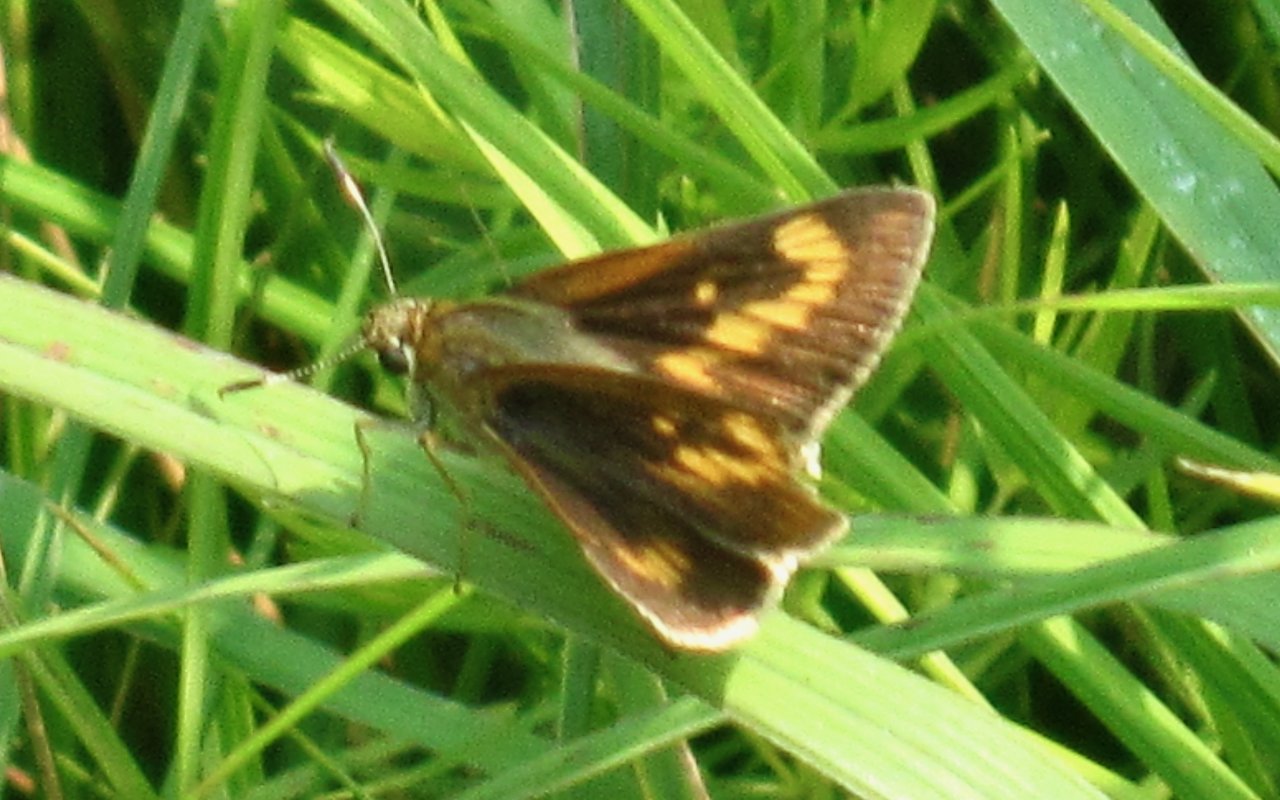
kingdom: Animalia
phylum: Arthropoda
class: Insecta
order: Lepidoptera
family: Hesperiidae
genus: Problema
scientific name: Problema byssus
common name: Byssus Skipper
